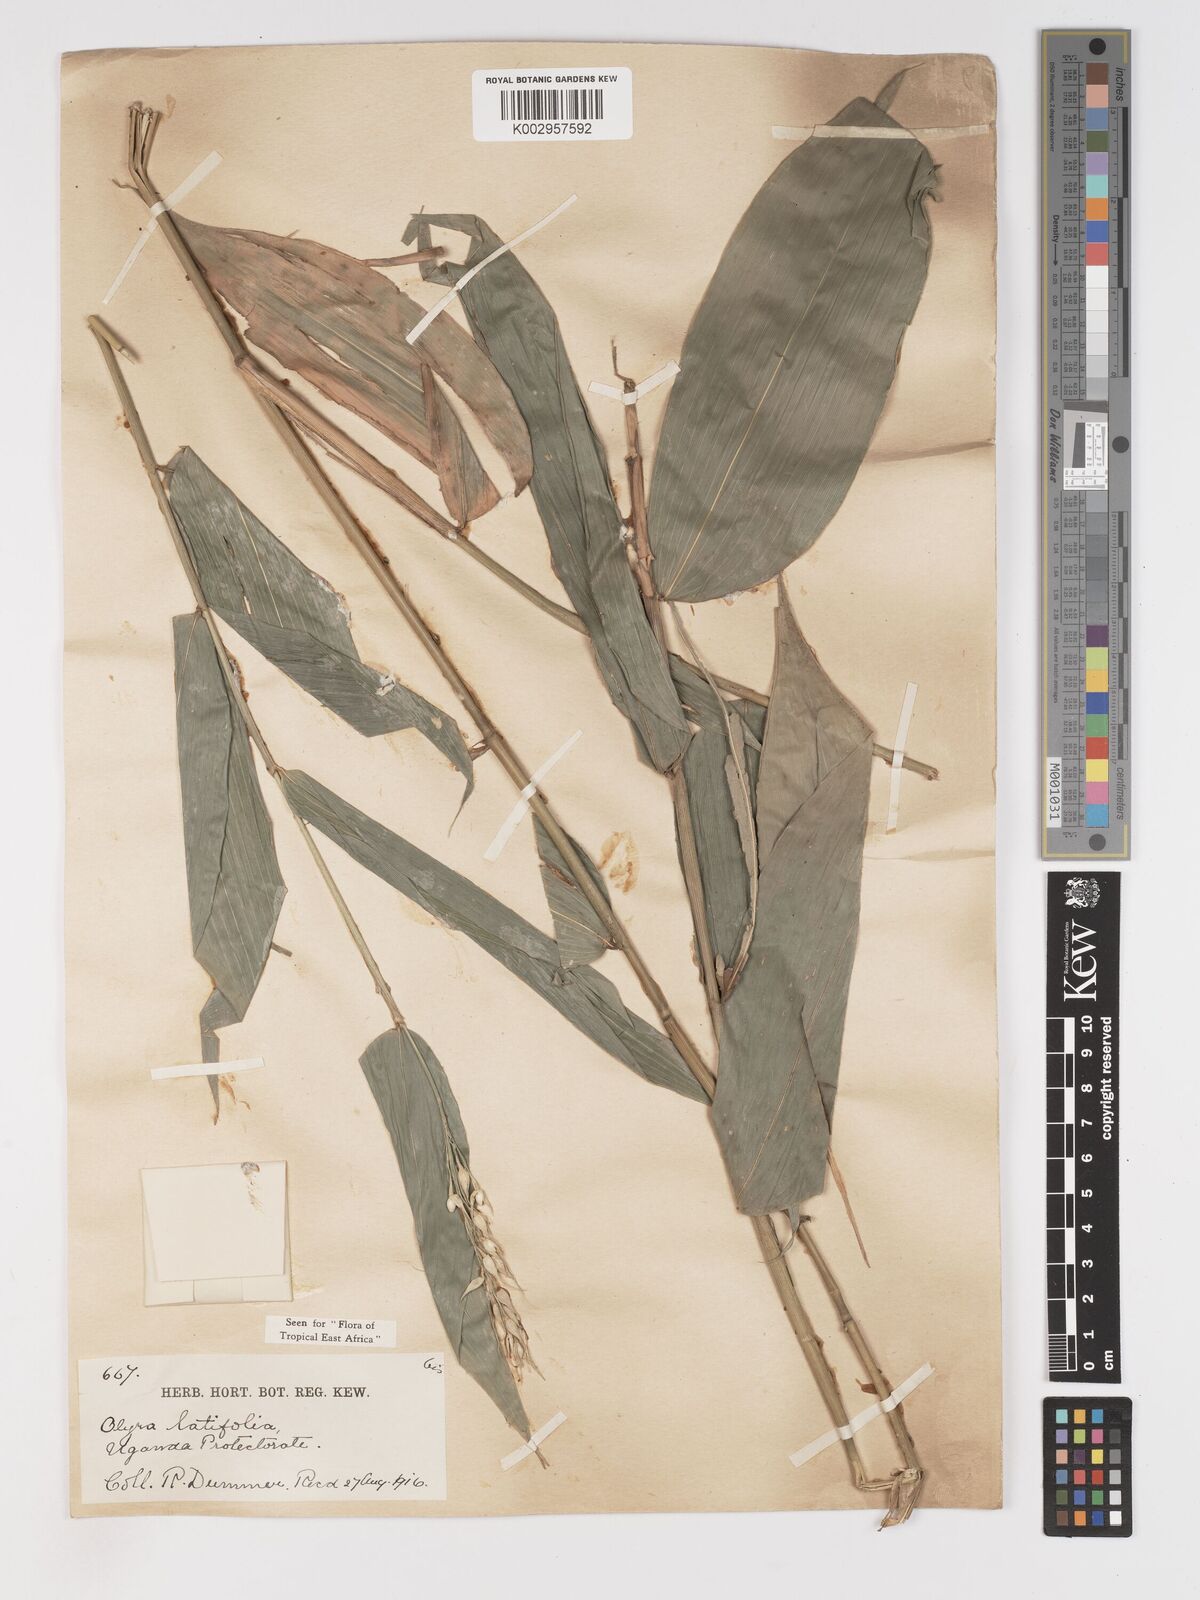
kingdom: Plantae
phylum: Tracheophyta
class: Liliopsida
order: Poales
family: Poaceae
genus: Olyra
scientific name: Olyra latifolia
